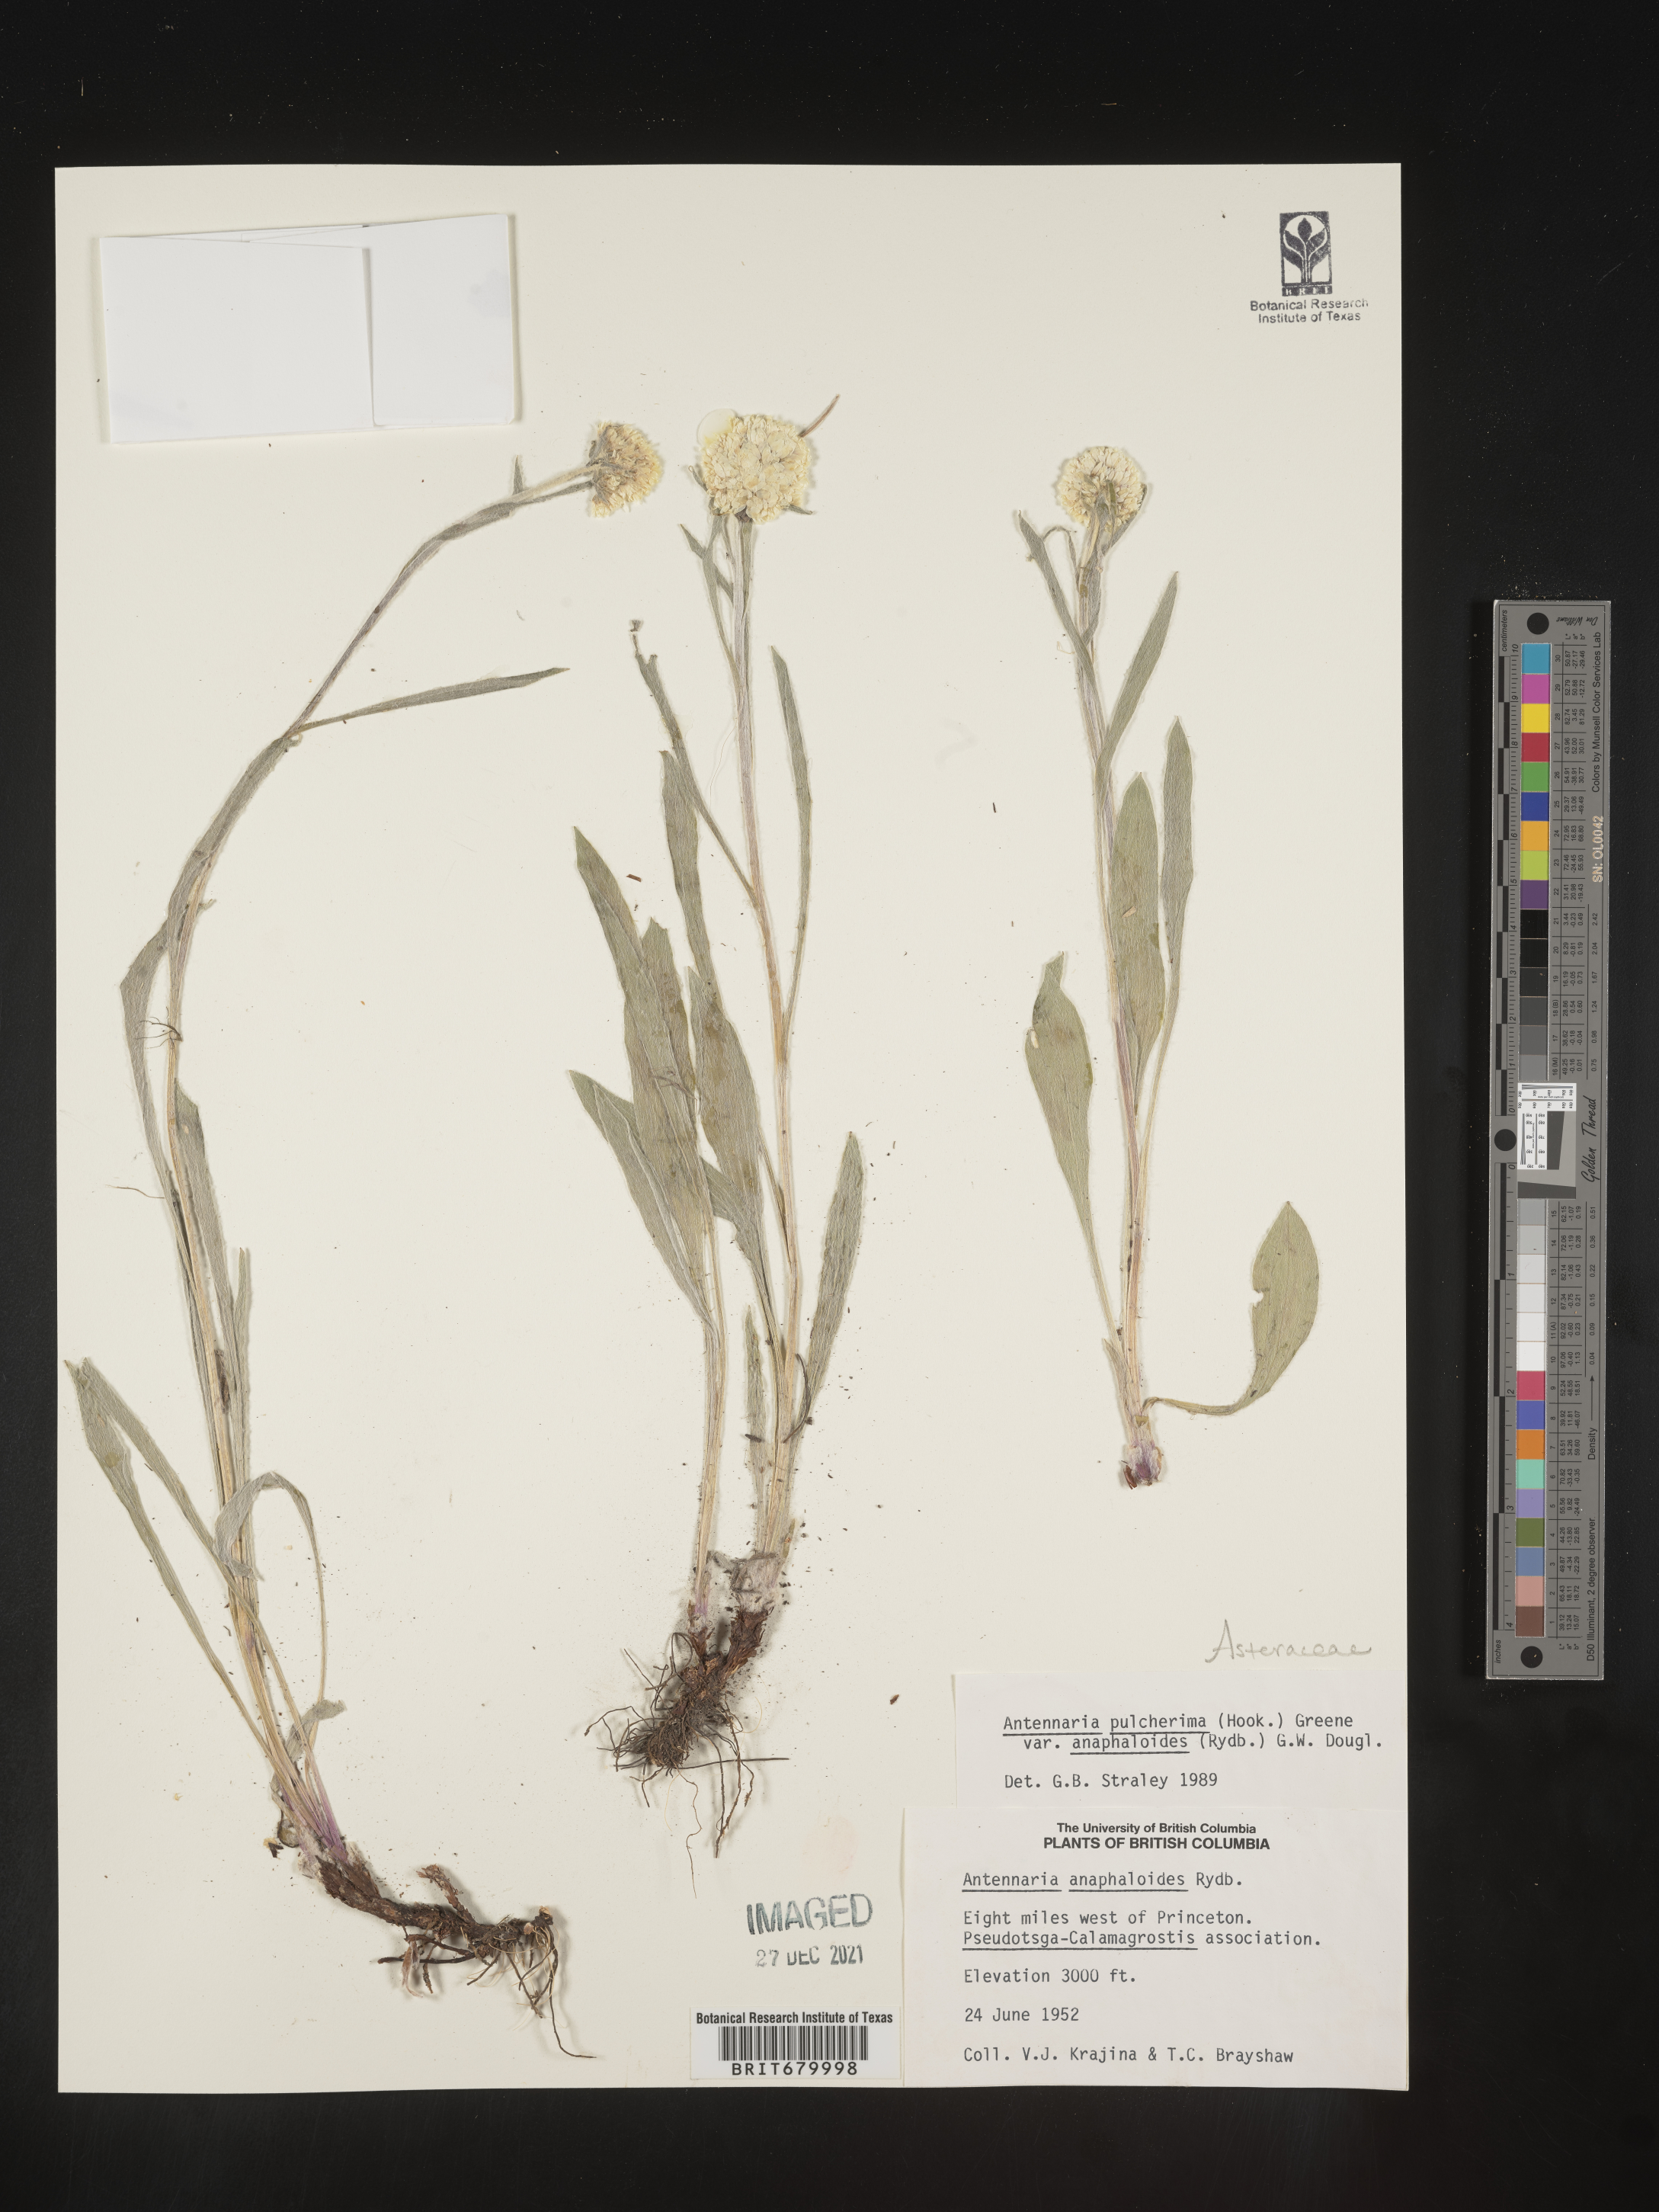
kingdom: Plantae
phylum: Tracheophyta
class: Magnoliopsida
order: Asterales
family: Asteraceae
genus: Antennaria
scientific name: Antennaria pulcherrima
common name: Handsome pussytoes
